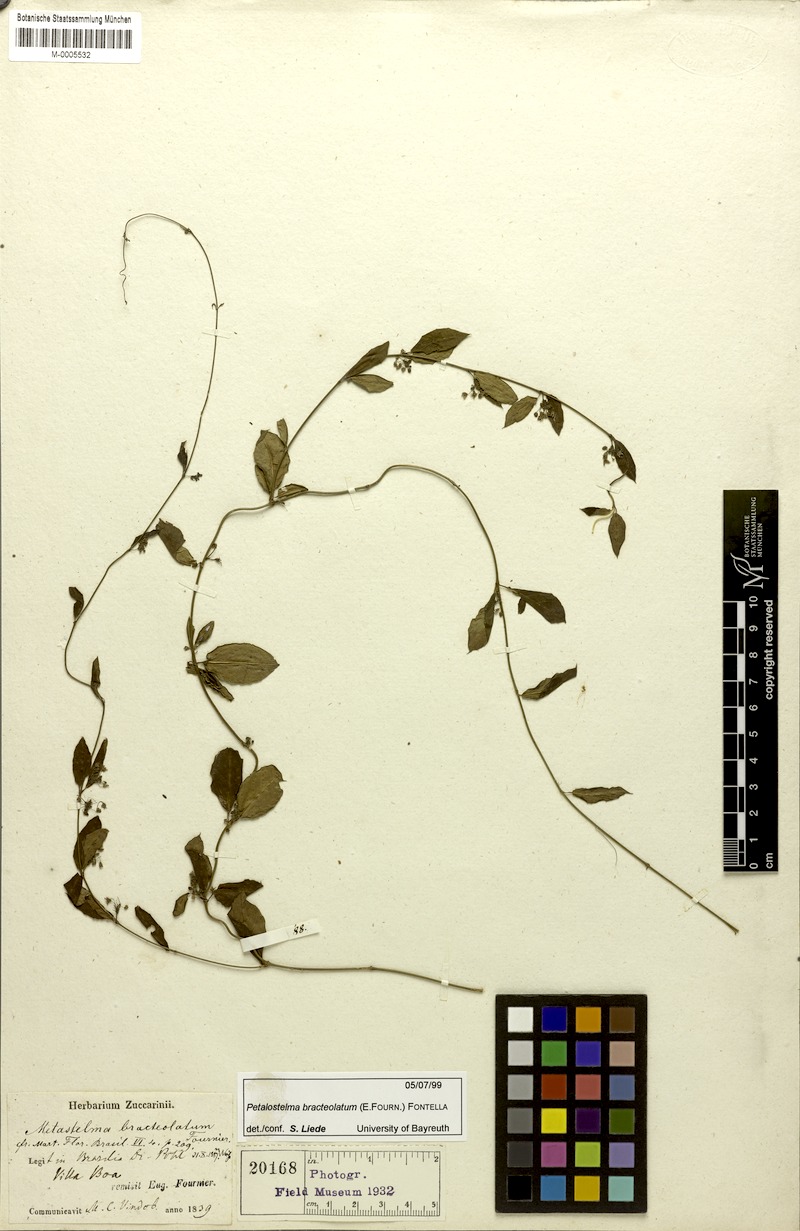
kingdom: Plantae
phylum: Tracheophyta
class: Magnoliopsida
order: Gentianales
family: Apocynaceae
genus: Petalostelma
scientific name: Petalostelma bracteolatum
